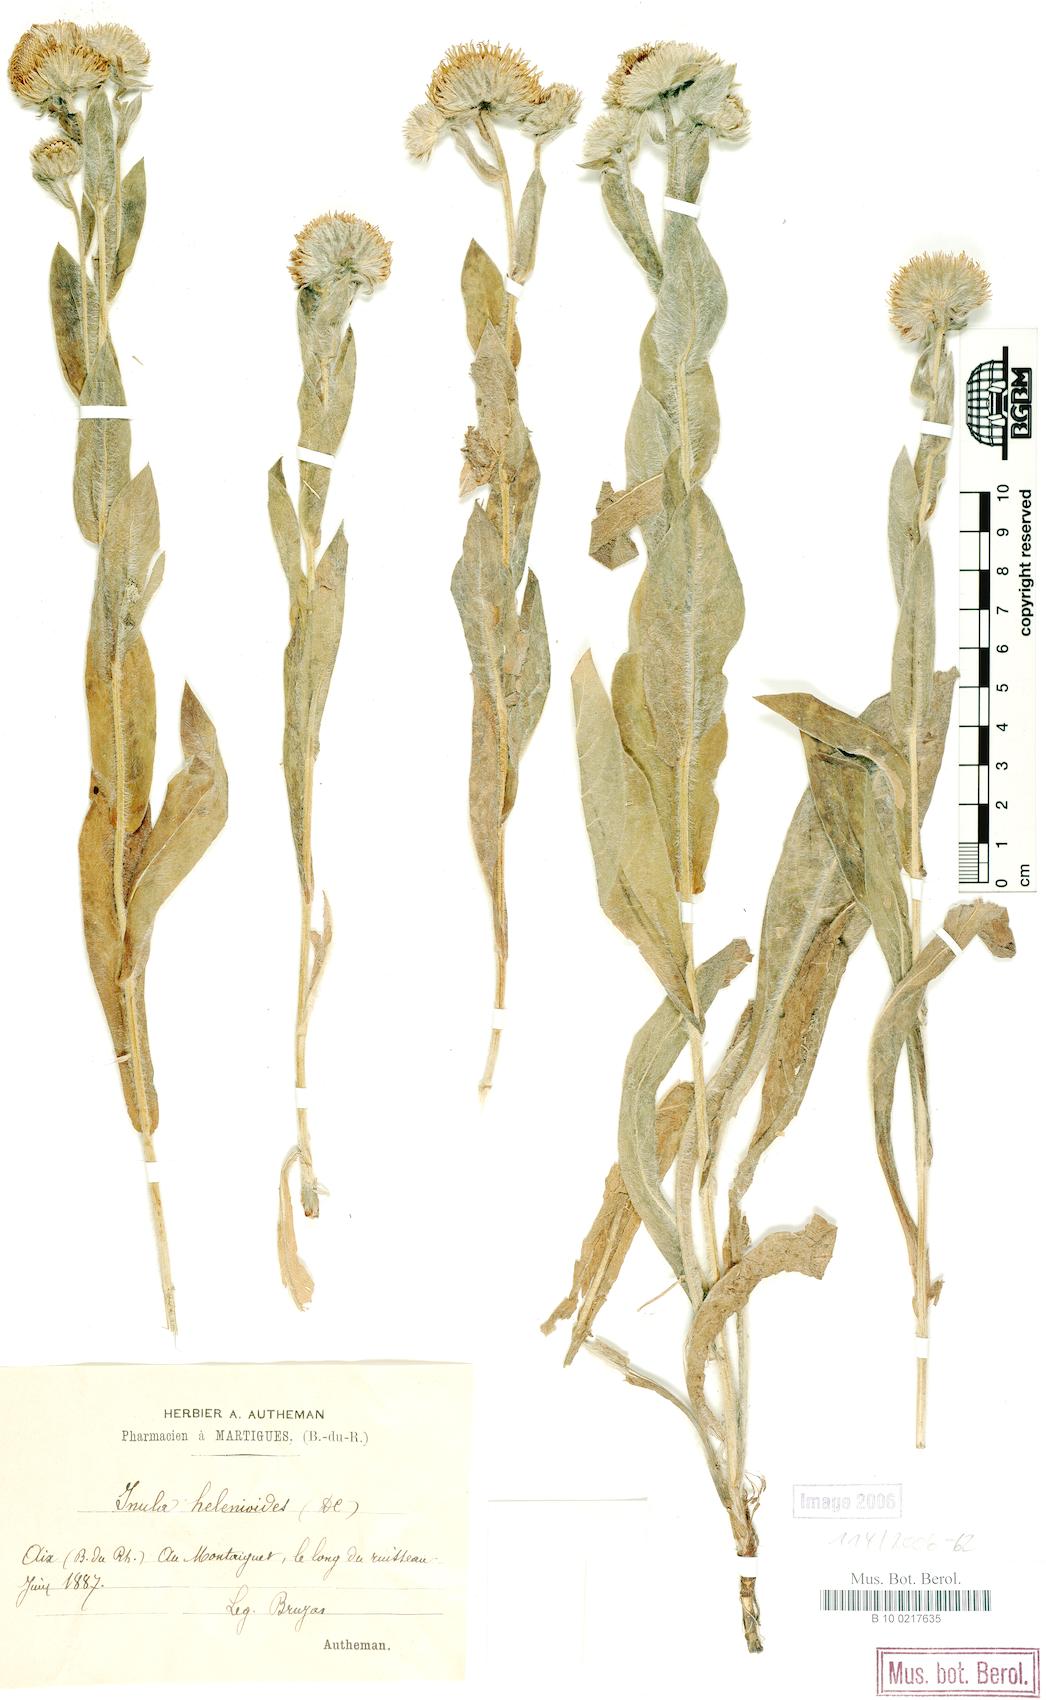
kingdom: Plantae
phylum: Tracheophyta
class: Magnoliopsida
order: Asterales
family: Asteraceae
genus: Pentanema
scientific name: Pentanema helenioides
